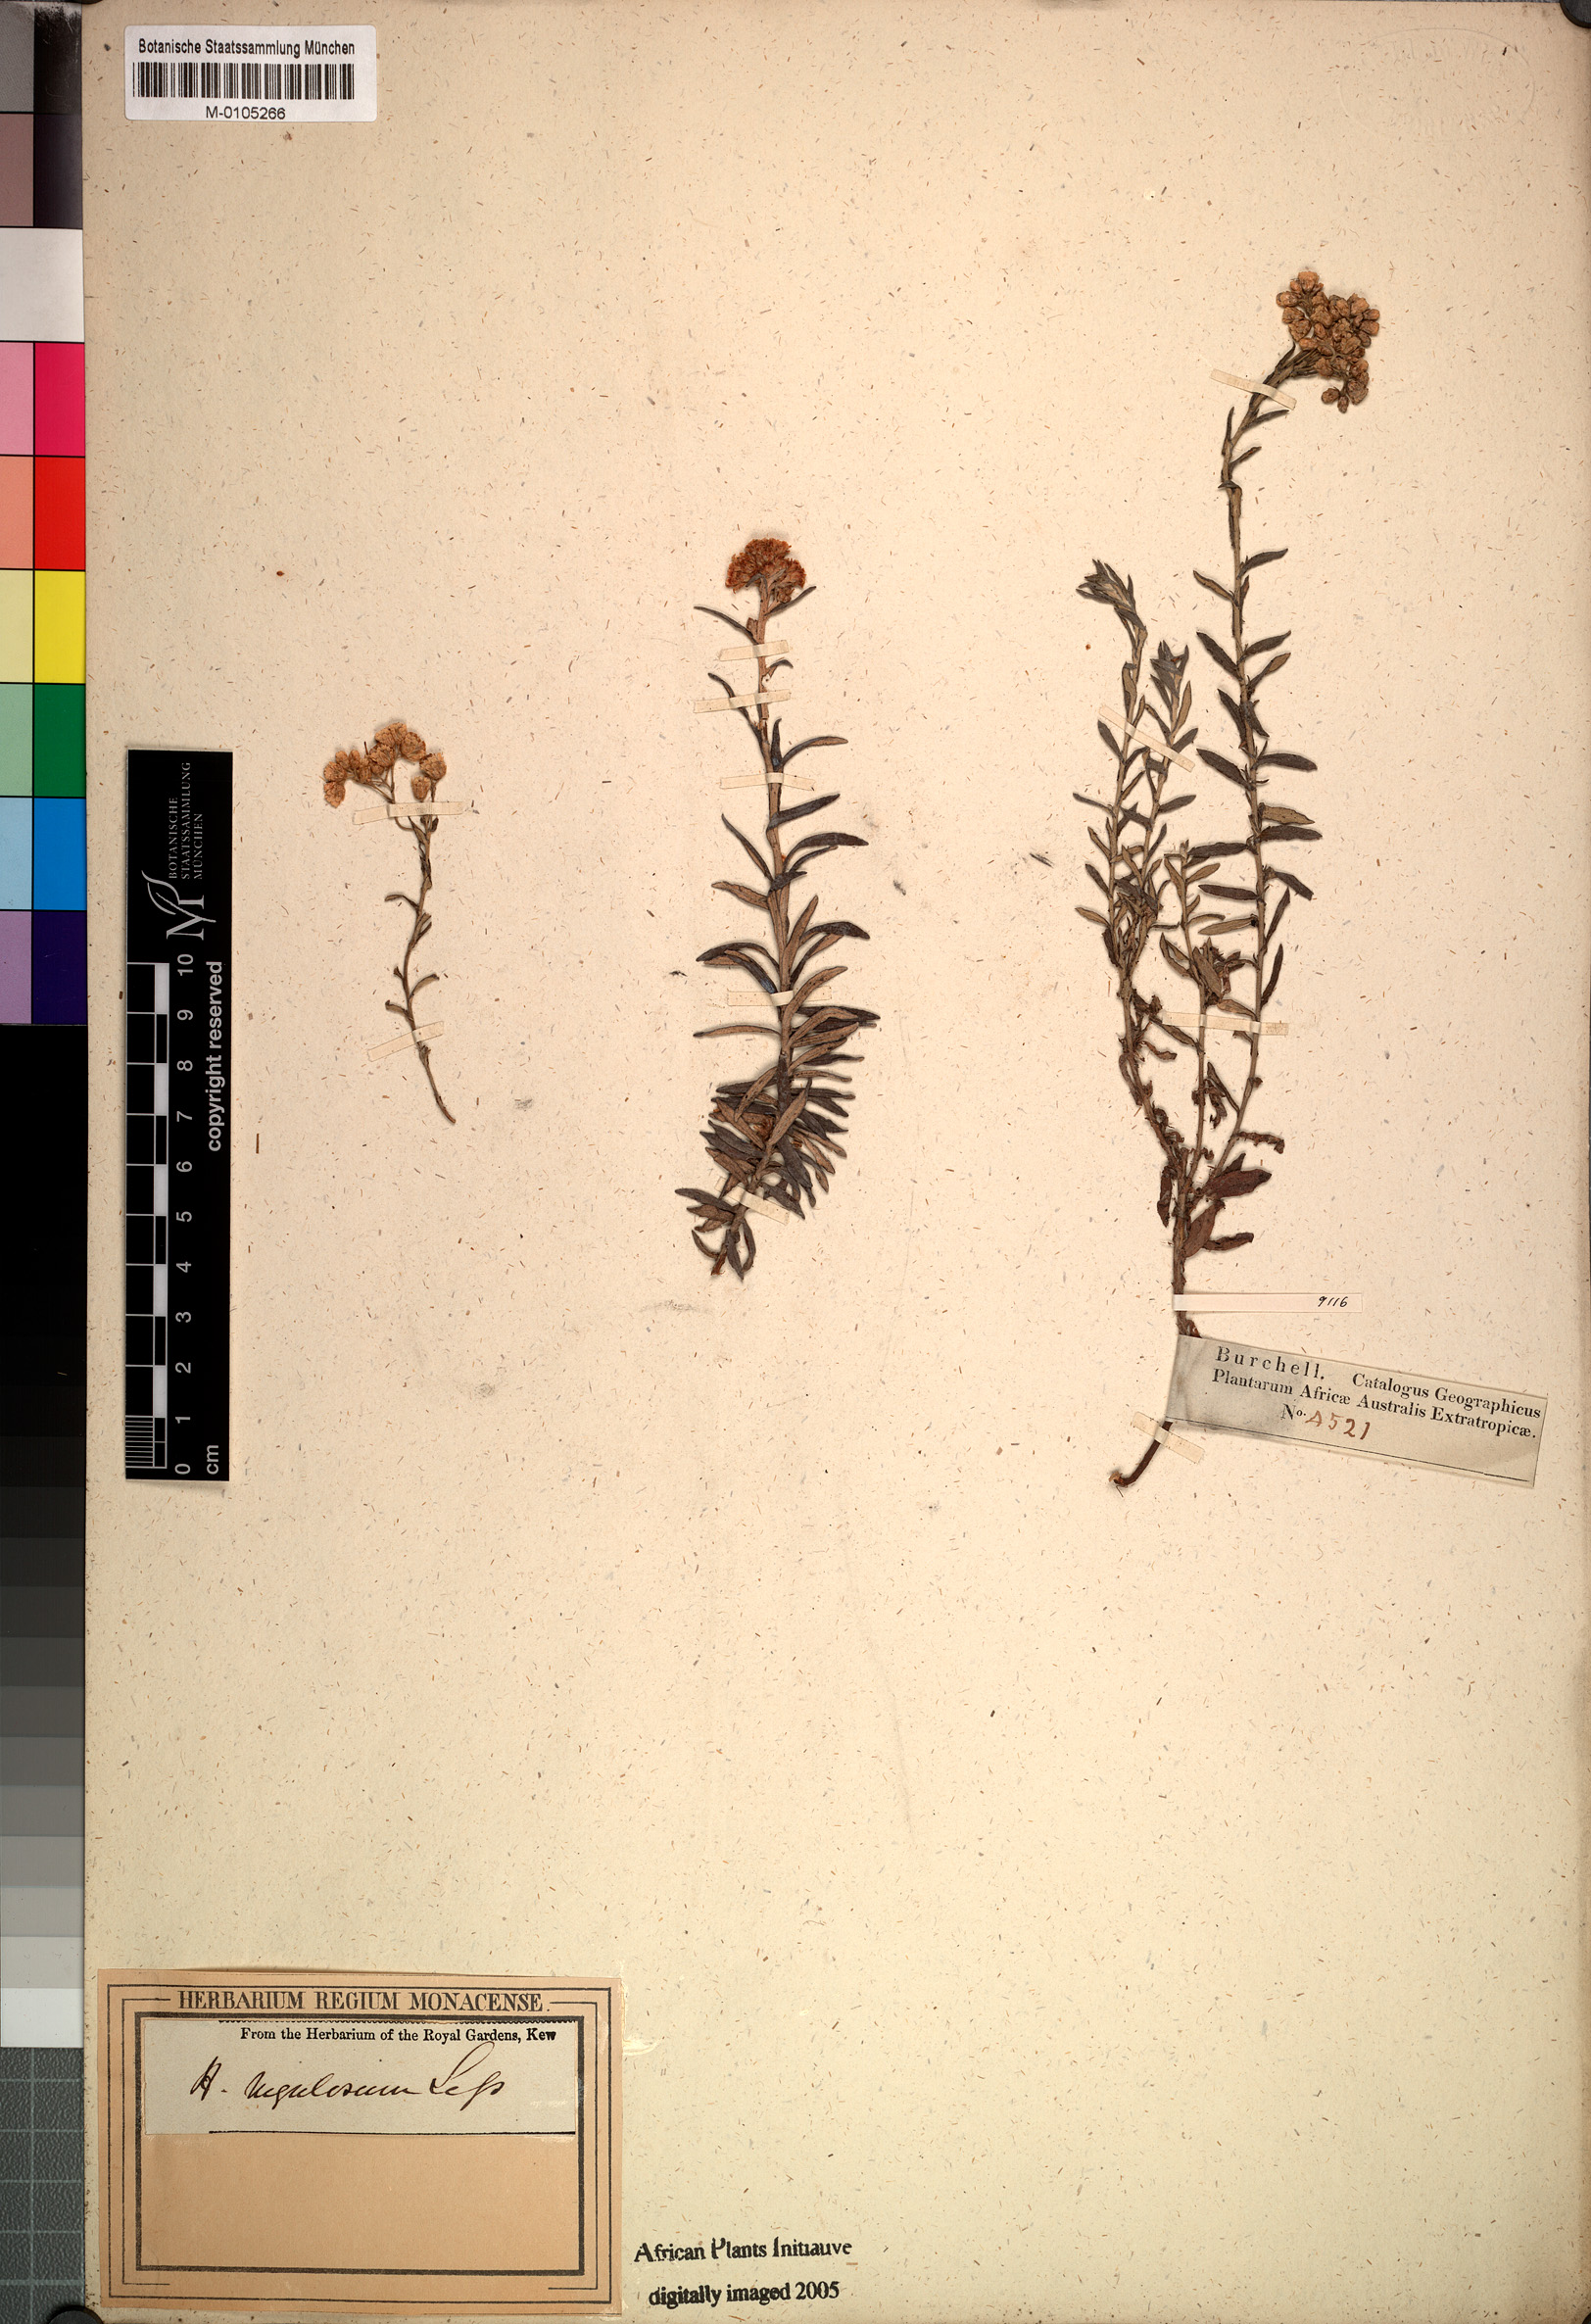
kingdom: Plantae
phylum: Tracheophyta
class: Magnoliopsida
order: Asterales
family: Asteraceae
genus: Helichrysum
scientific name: Helichrysum rugulosum
